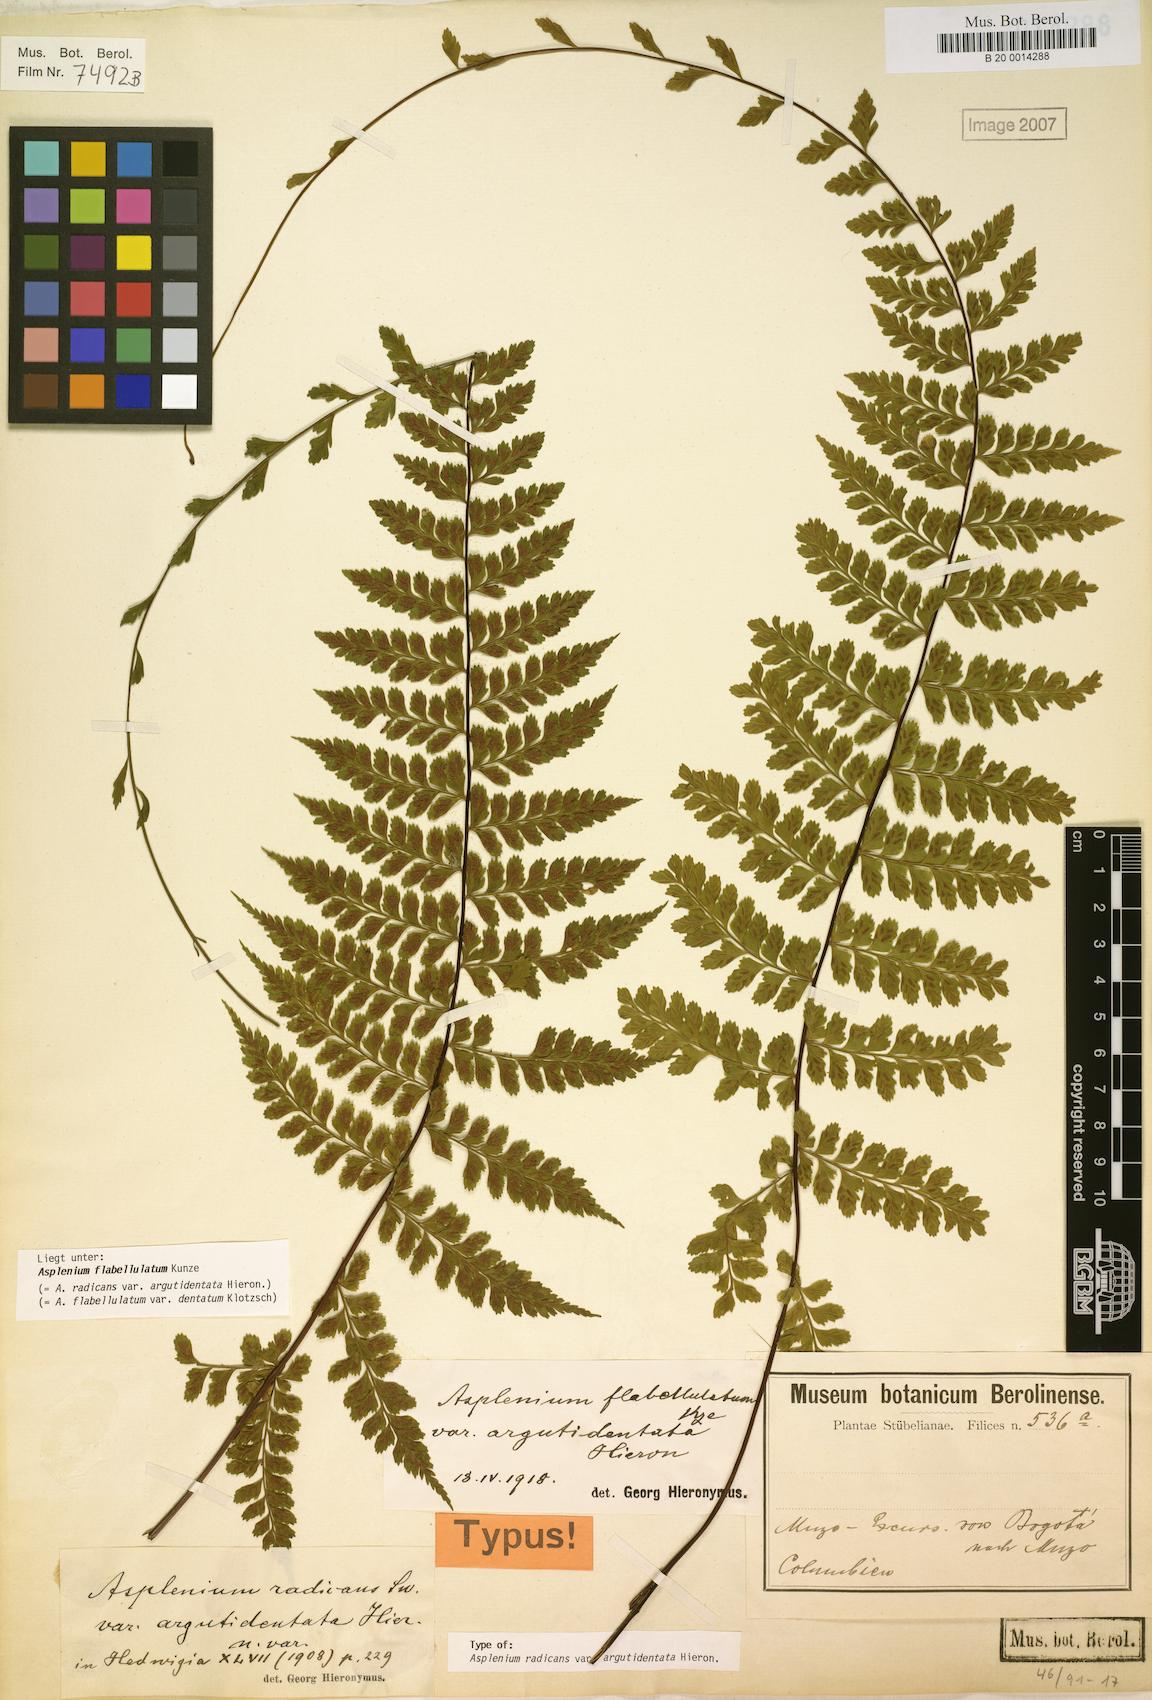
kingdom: Plantae
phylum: Tracheophyta
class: Polypodiopsida
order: Polypodiales
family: Aspleniaceae
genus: Asplenium
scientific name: Asplenium radicans
